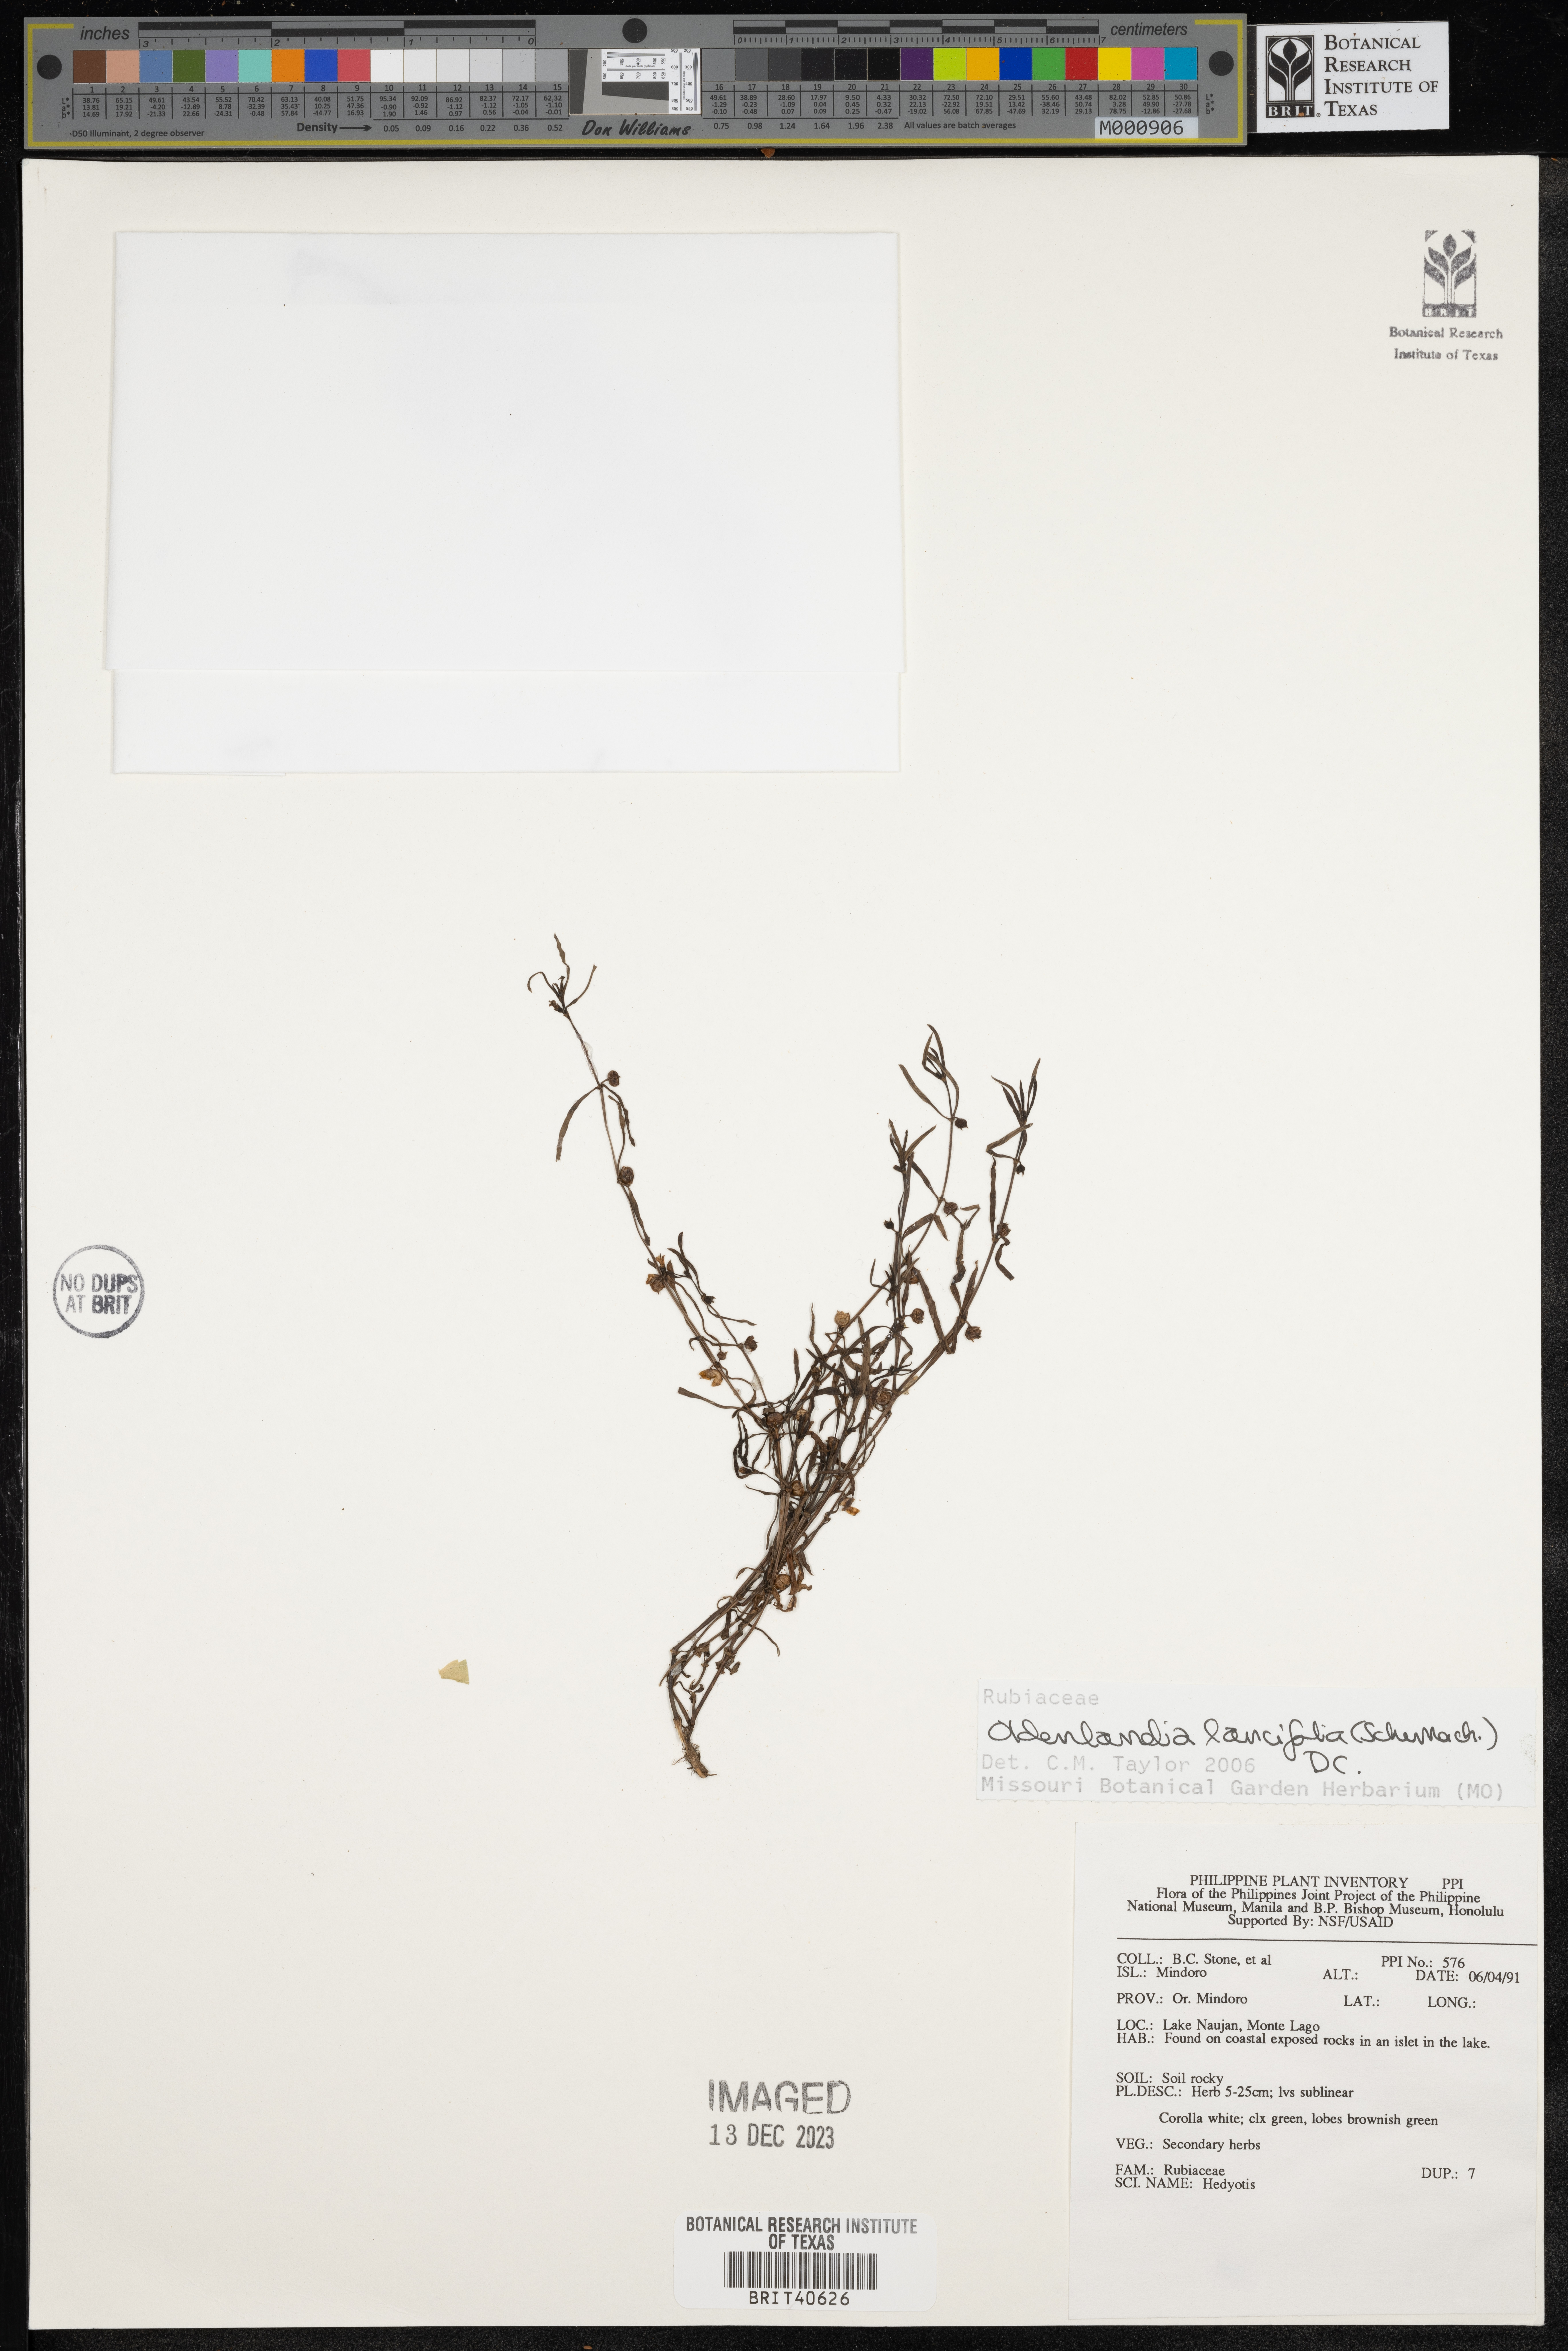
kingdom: Plantae
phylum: Tracheophyta
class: Magnoliopsida
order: Gentianales
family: Rubiaceae
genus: Oldenlandia
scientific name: Oldenlandia lancifolia
